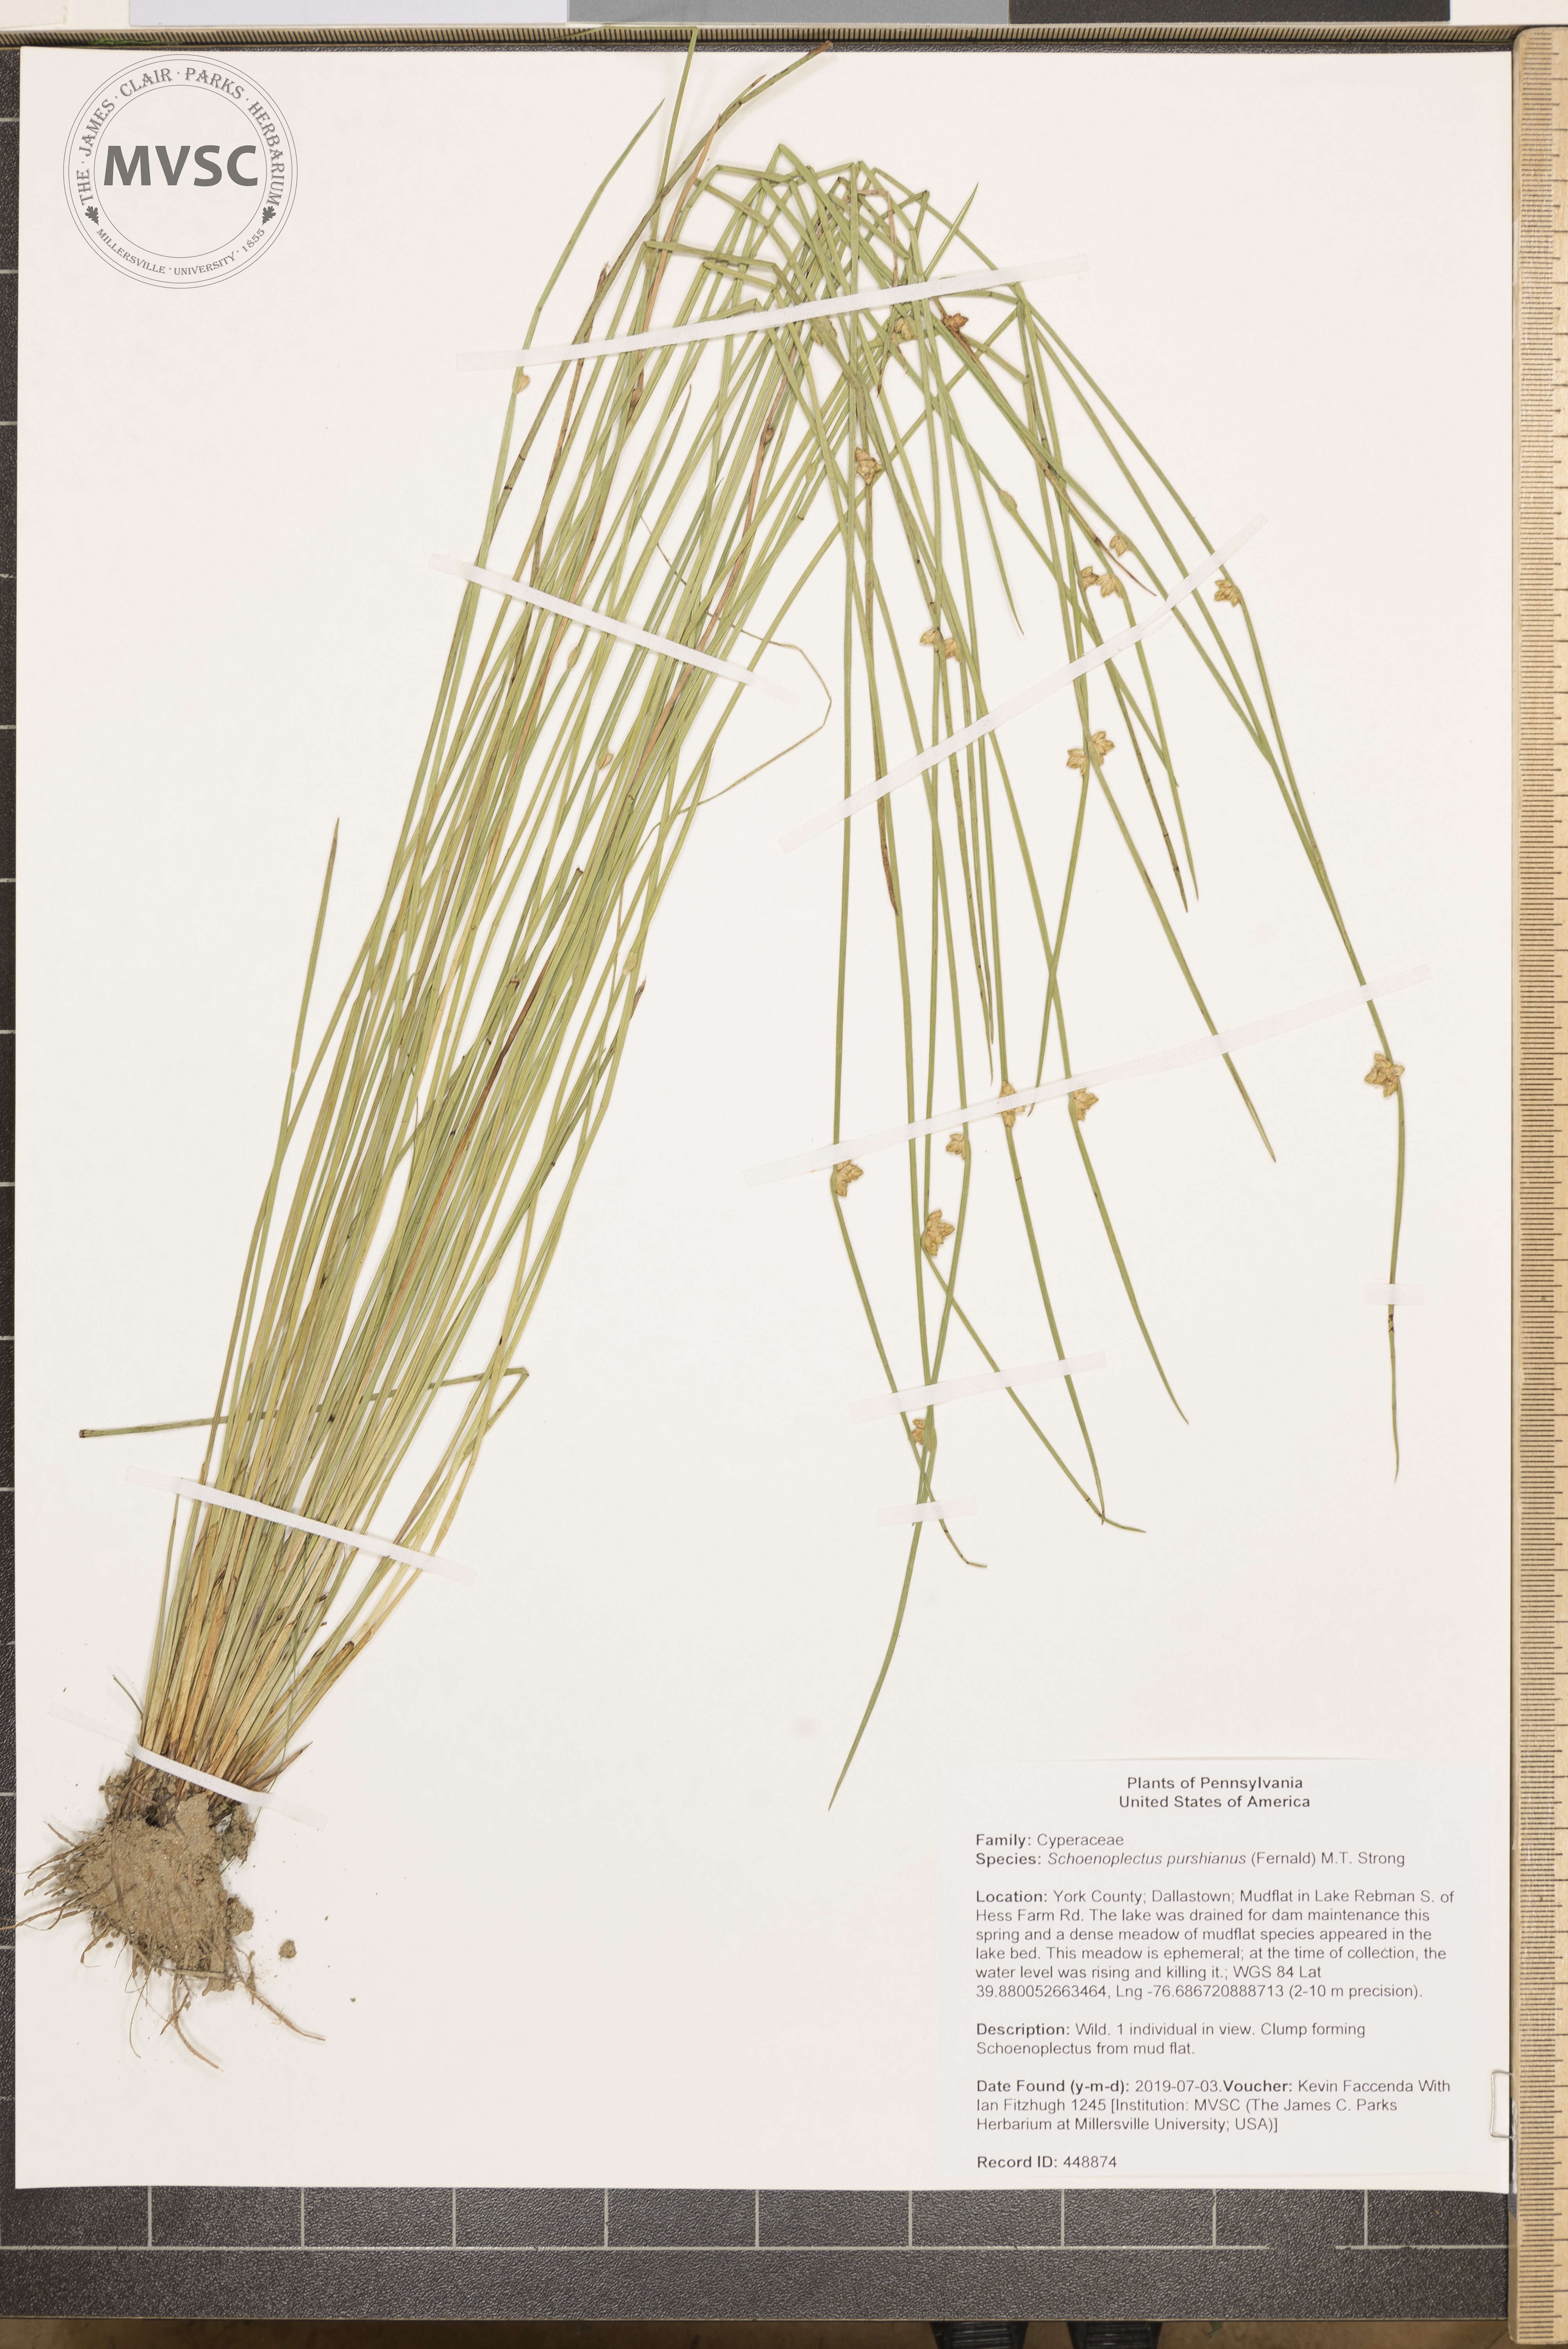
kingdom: Plantae
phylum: Tracheophyta
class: Liliopsida
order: Poales
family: Cyperaceae
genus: Schoenoplectiella
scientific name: Schoenoplectiella purshiana
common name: Weak-stalked bulrush
